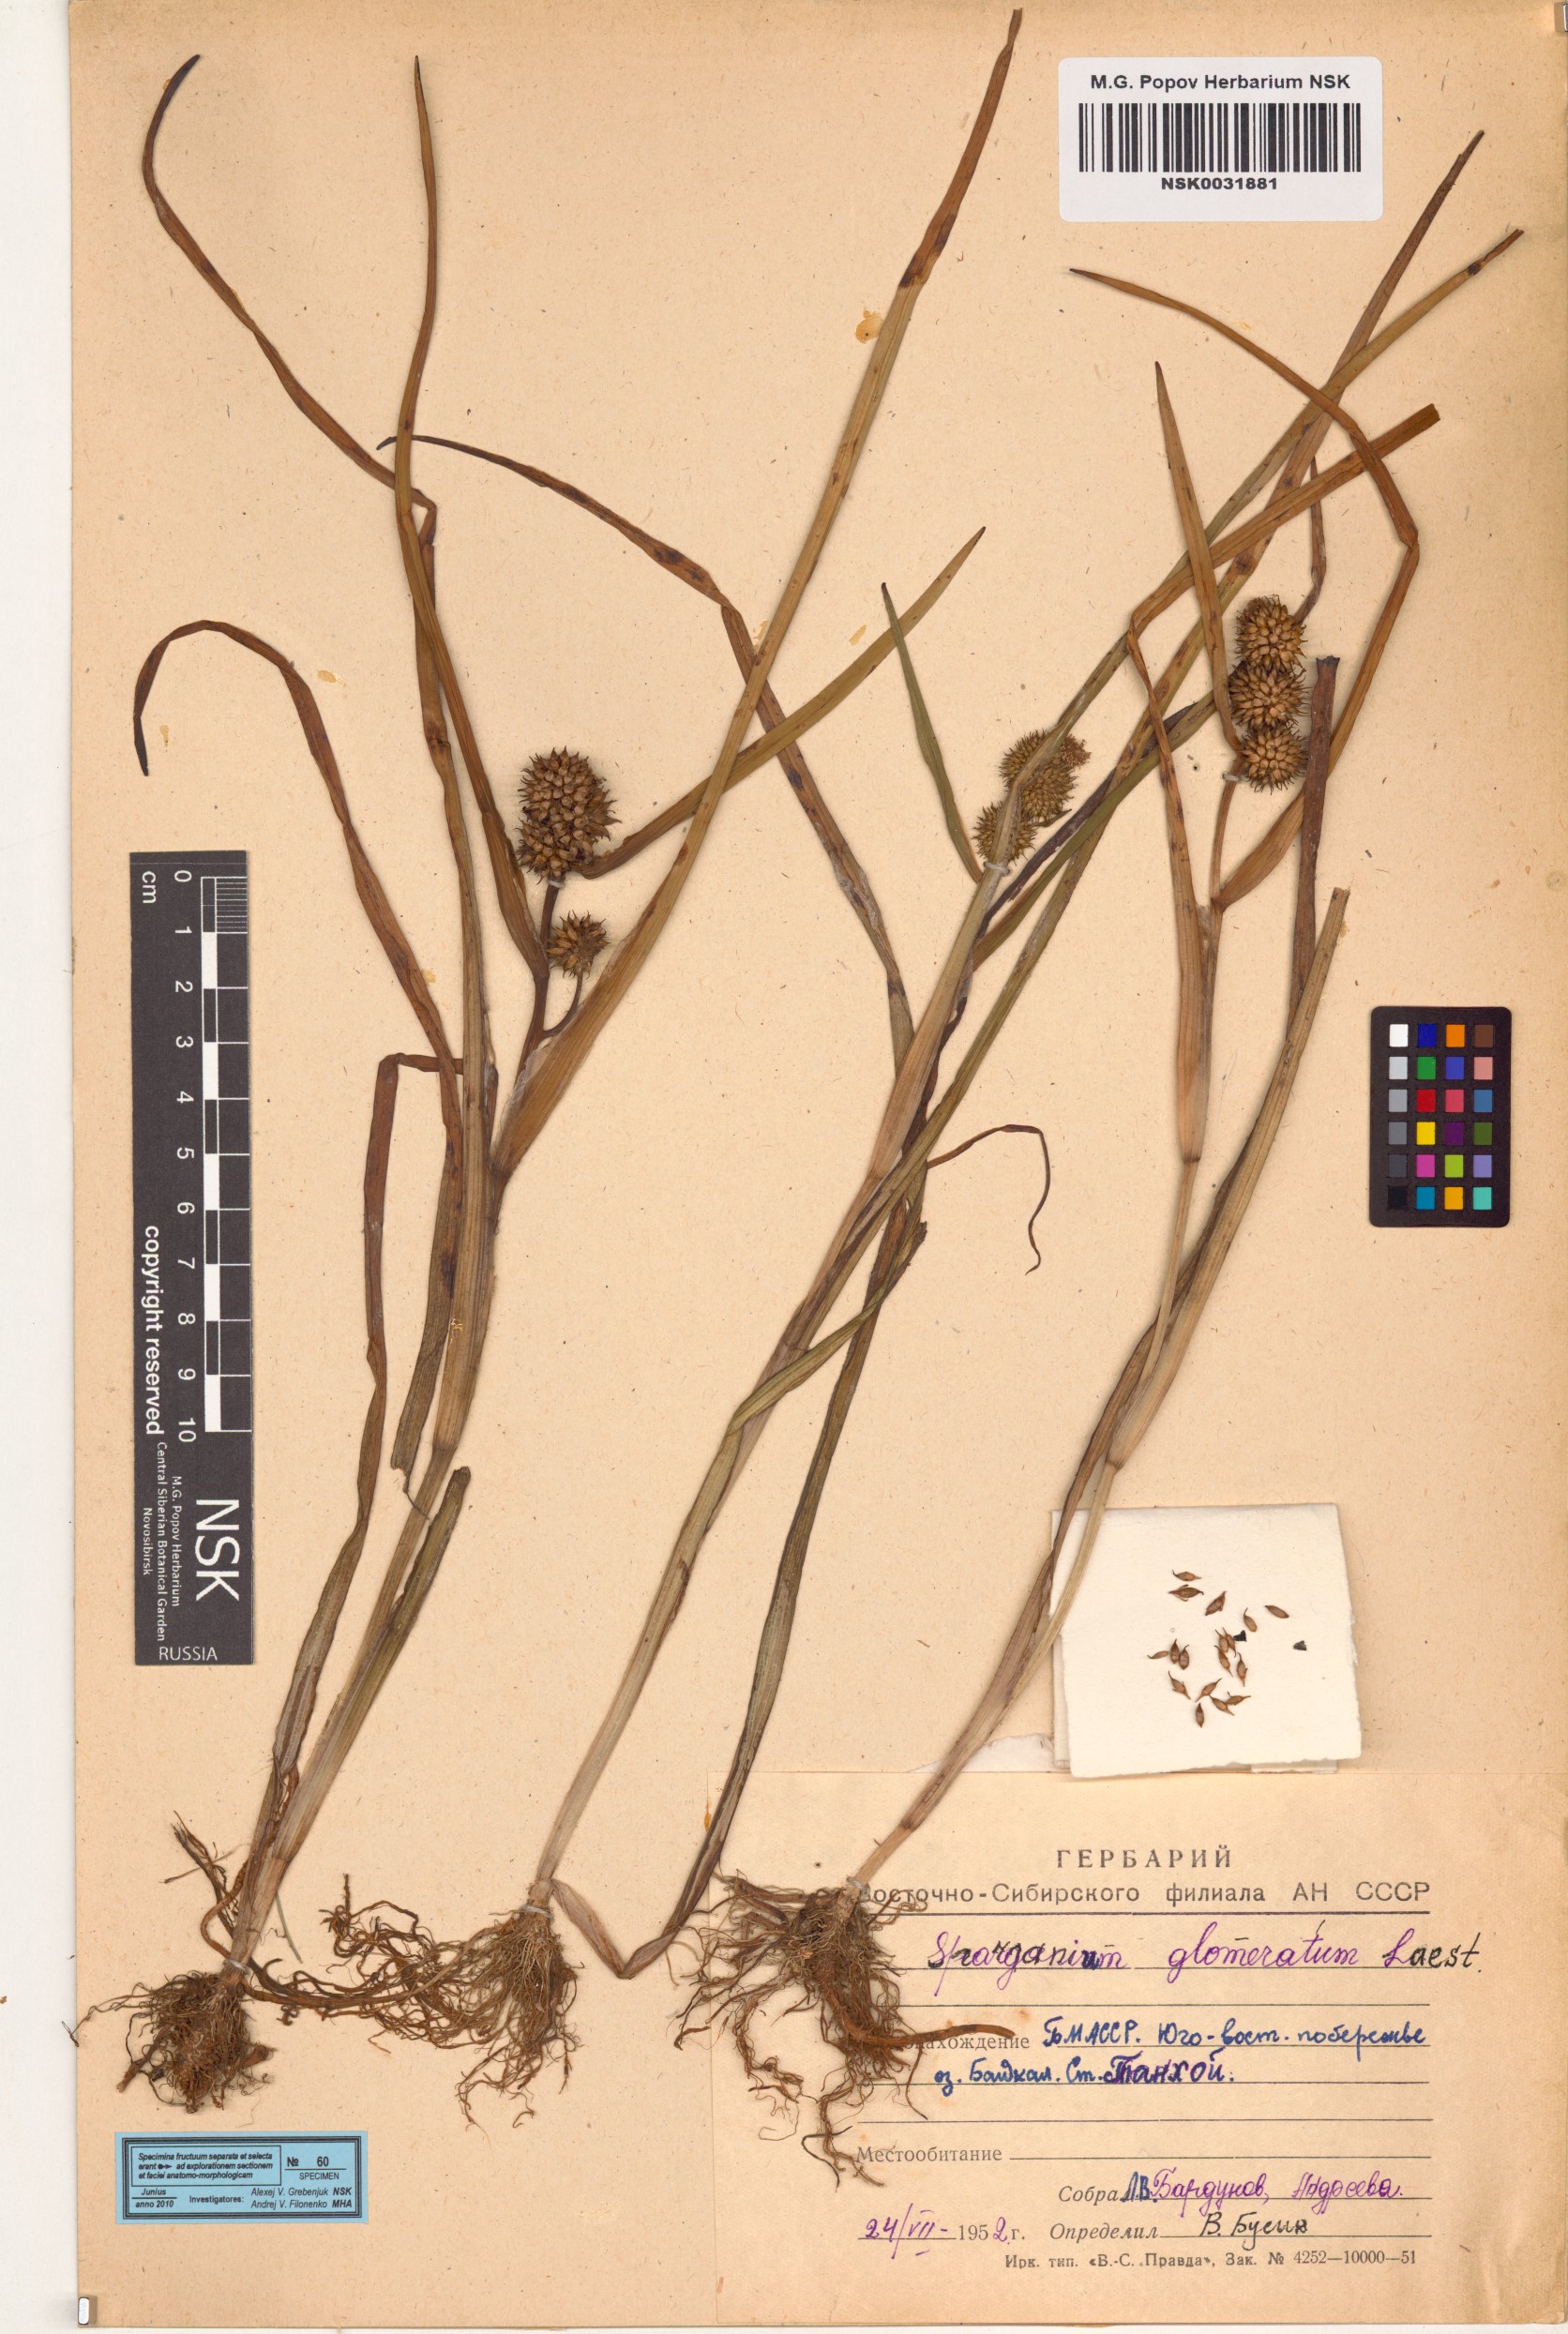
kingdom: Plantae
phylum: Tracheophyta
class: Liliopsida
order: Poales
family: Typhaceae
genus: Sparganium
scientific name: Sparganium glomeratum
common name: Clustered burreed
